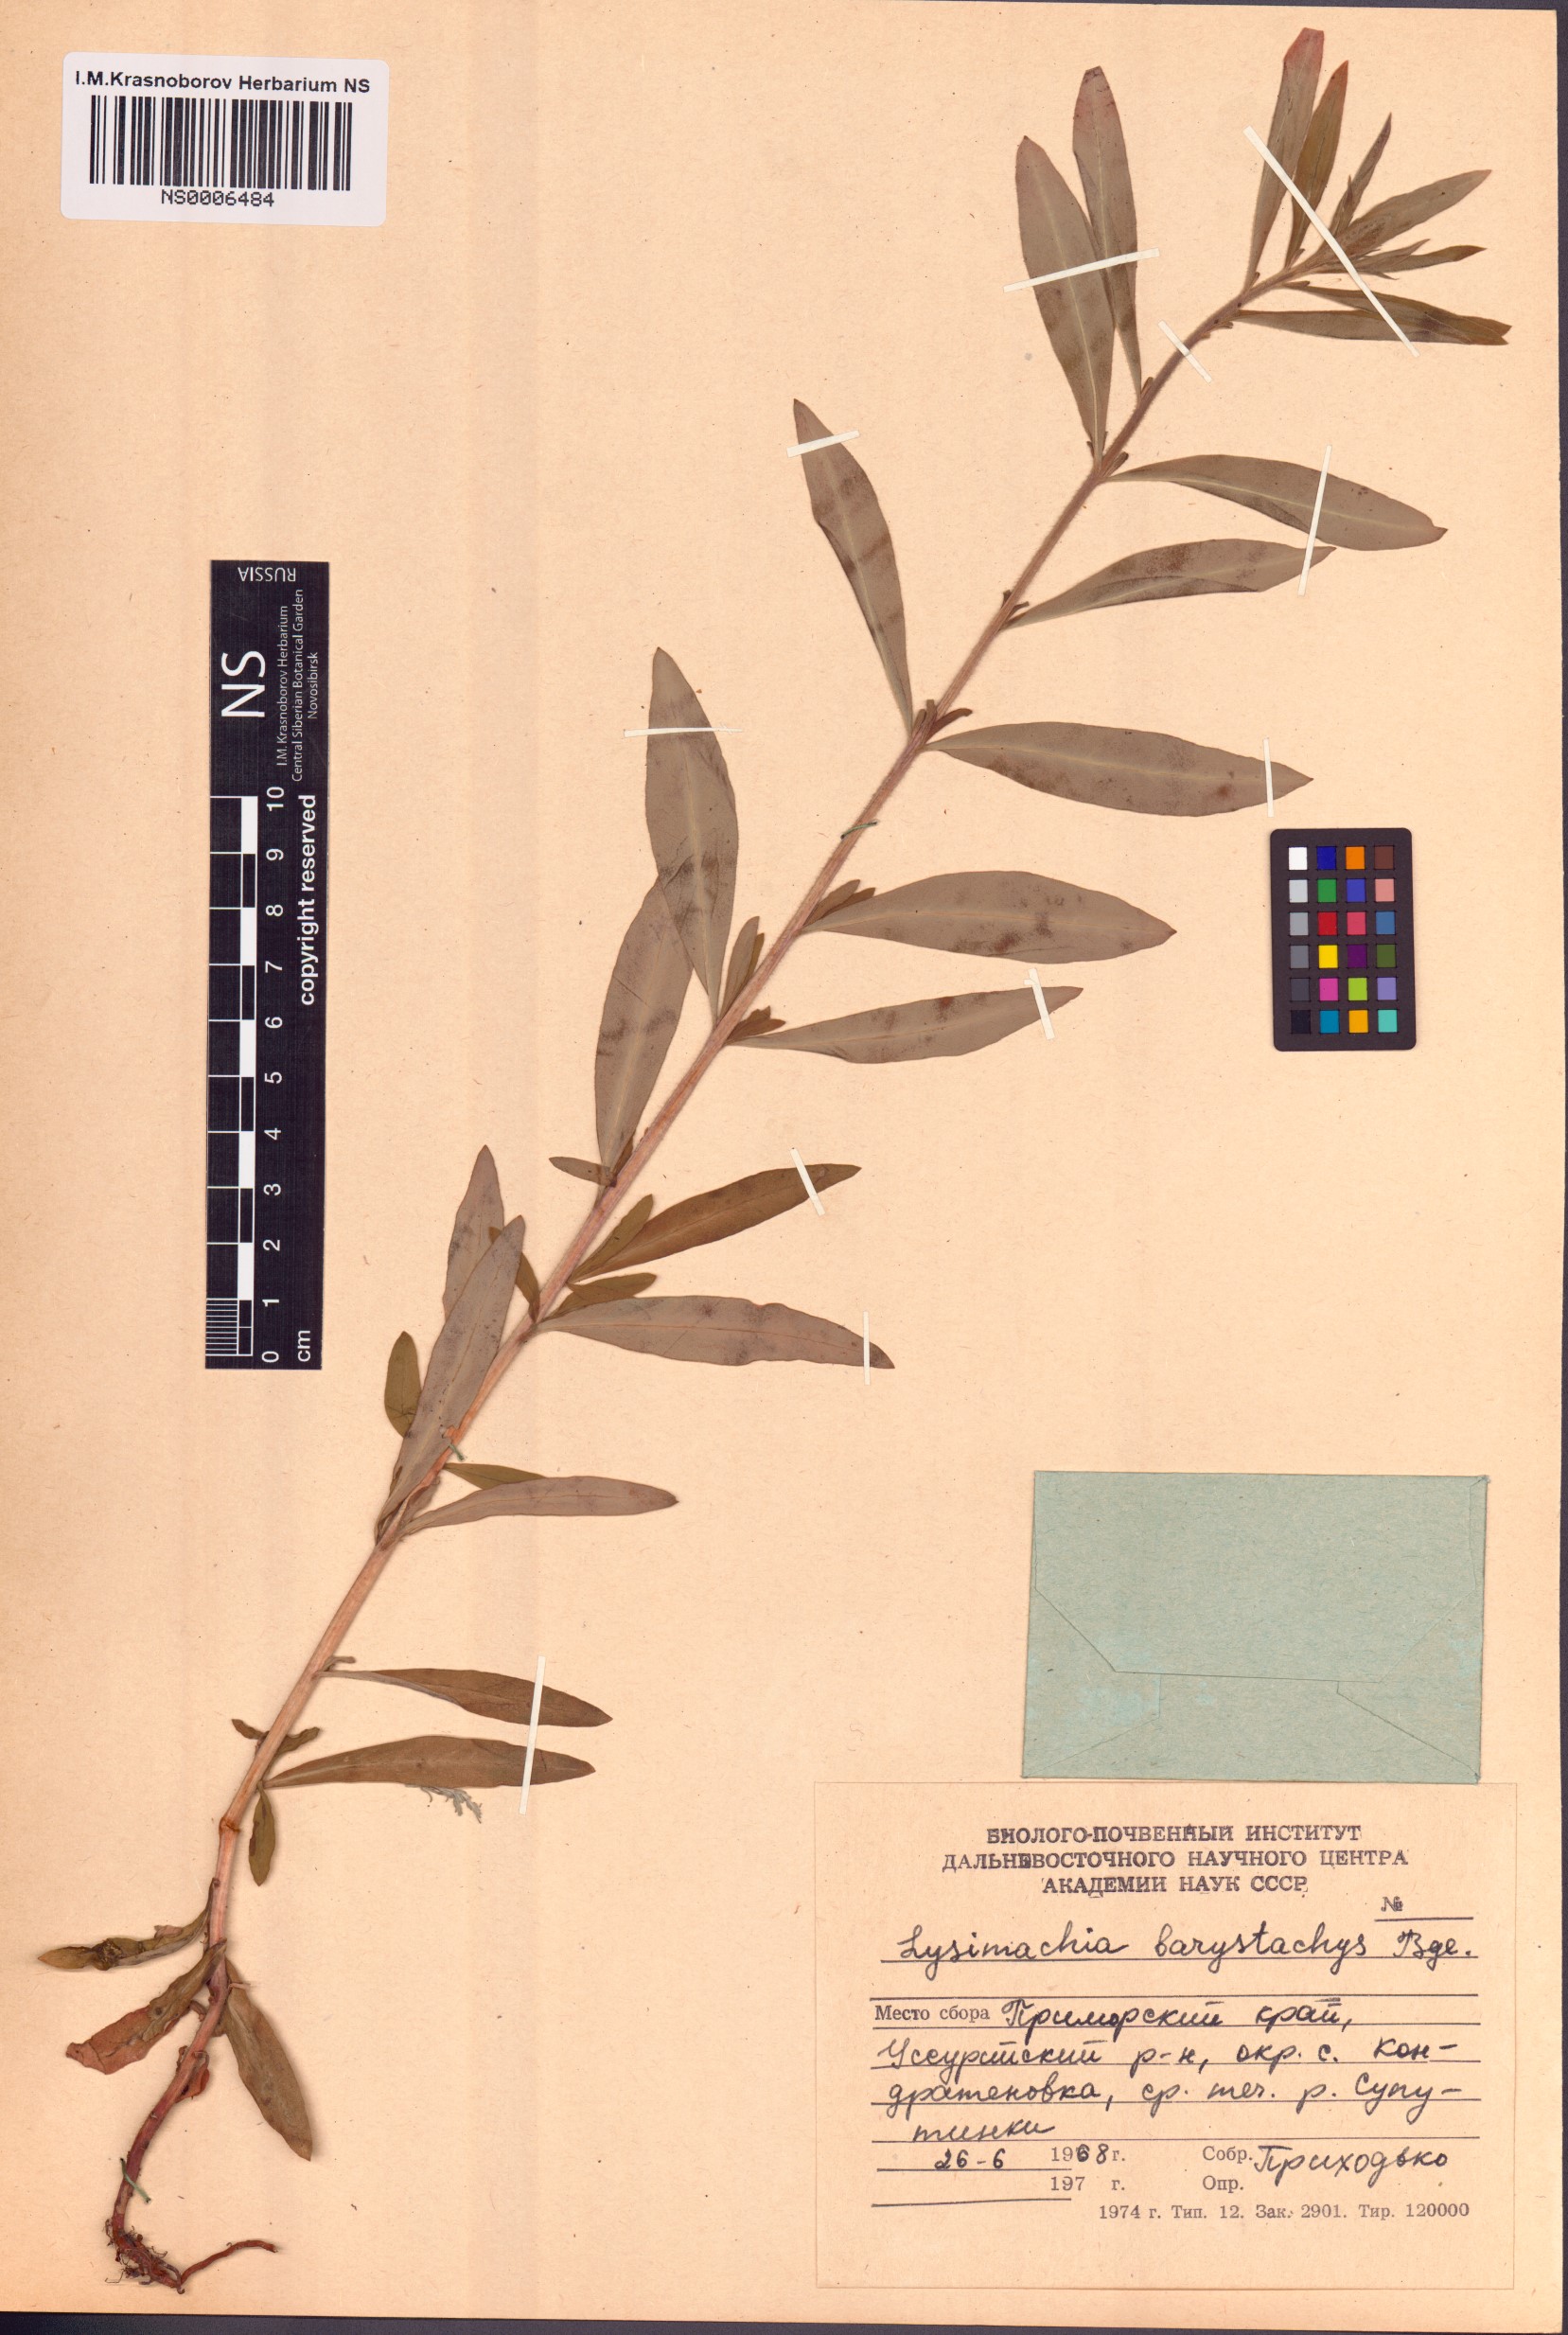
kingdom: Plantae
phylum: Tracheophyta
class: Magnoliopsida
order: Ericales
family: Primulaceae
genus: Lysimachia
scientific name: Lysimachia barystachys
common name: Manchurian yellow loosestrife
